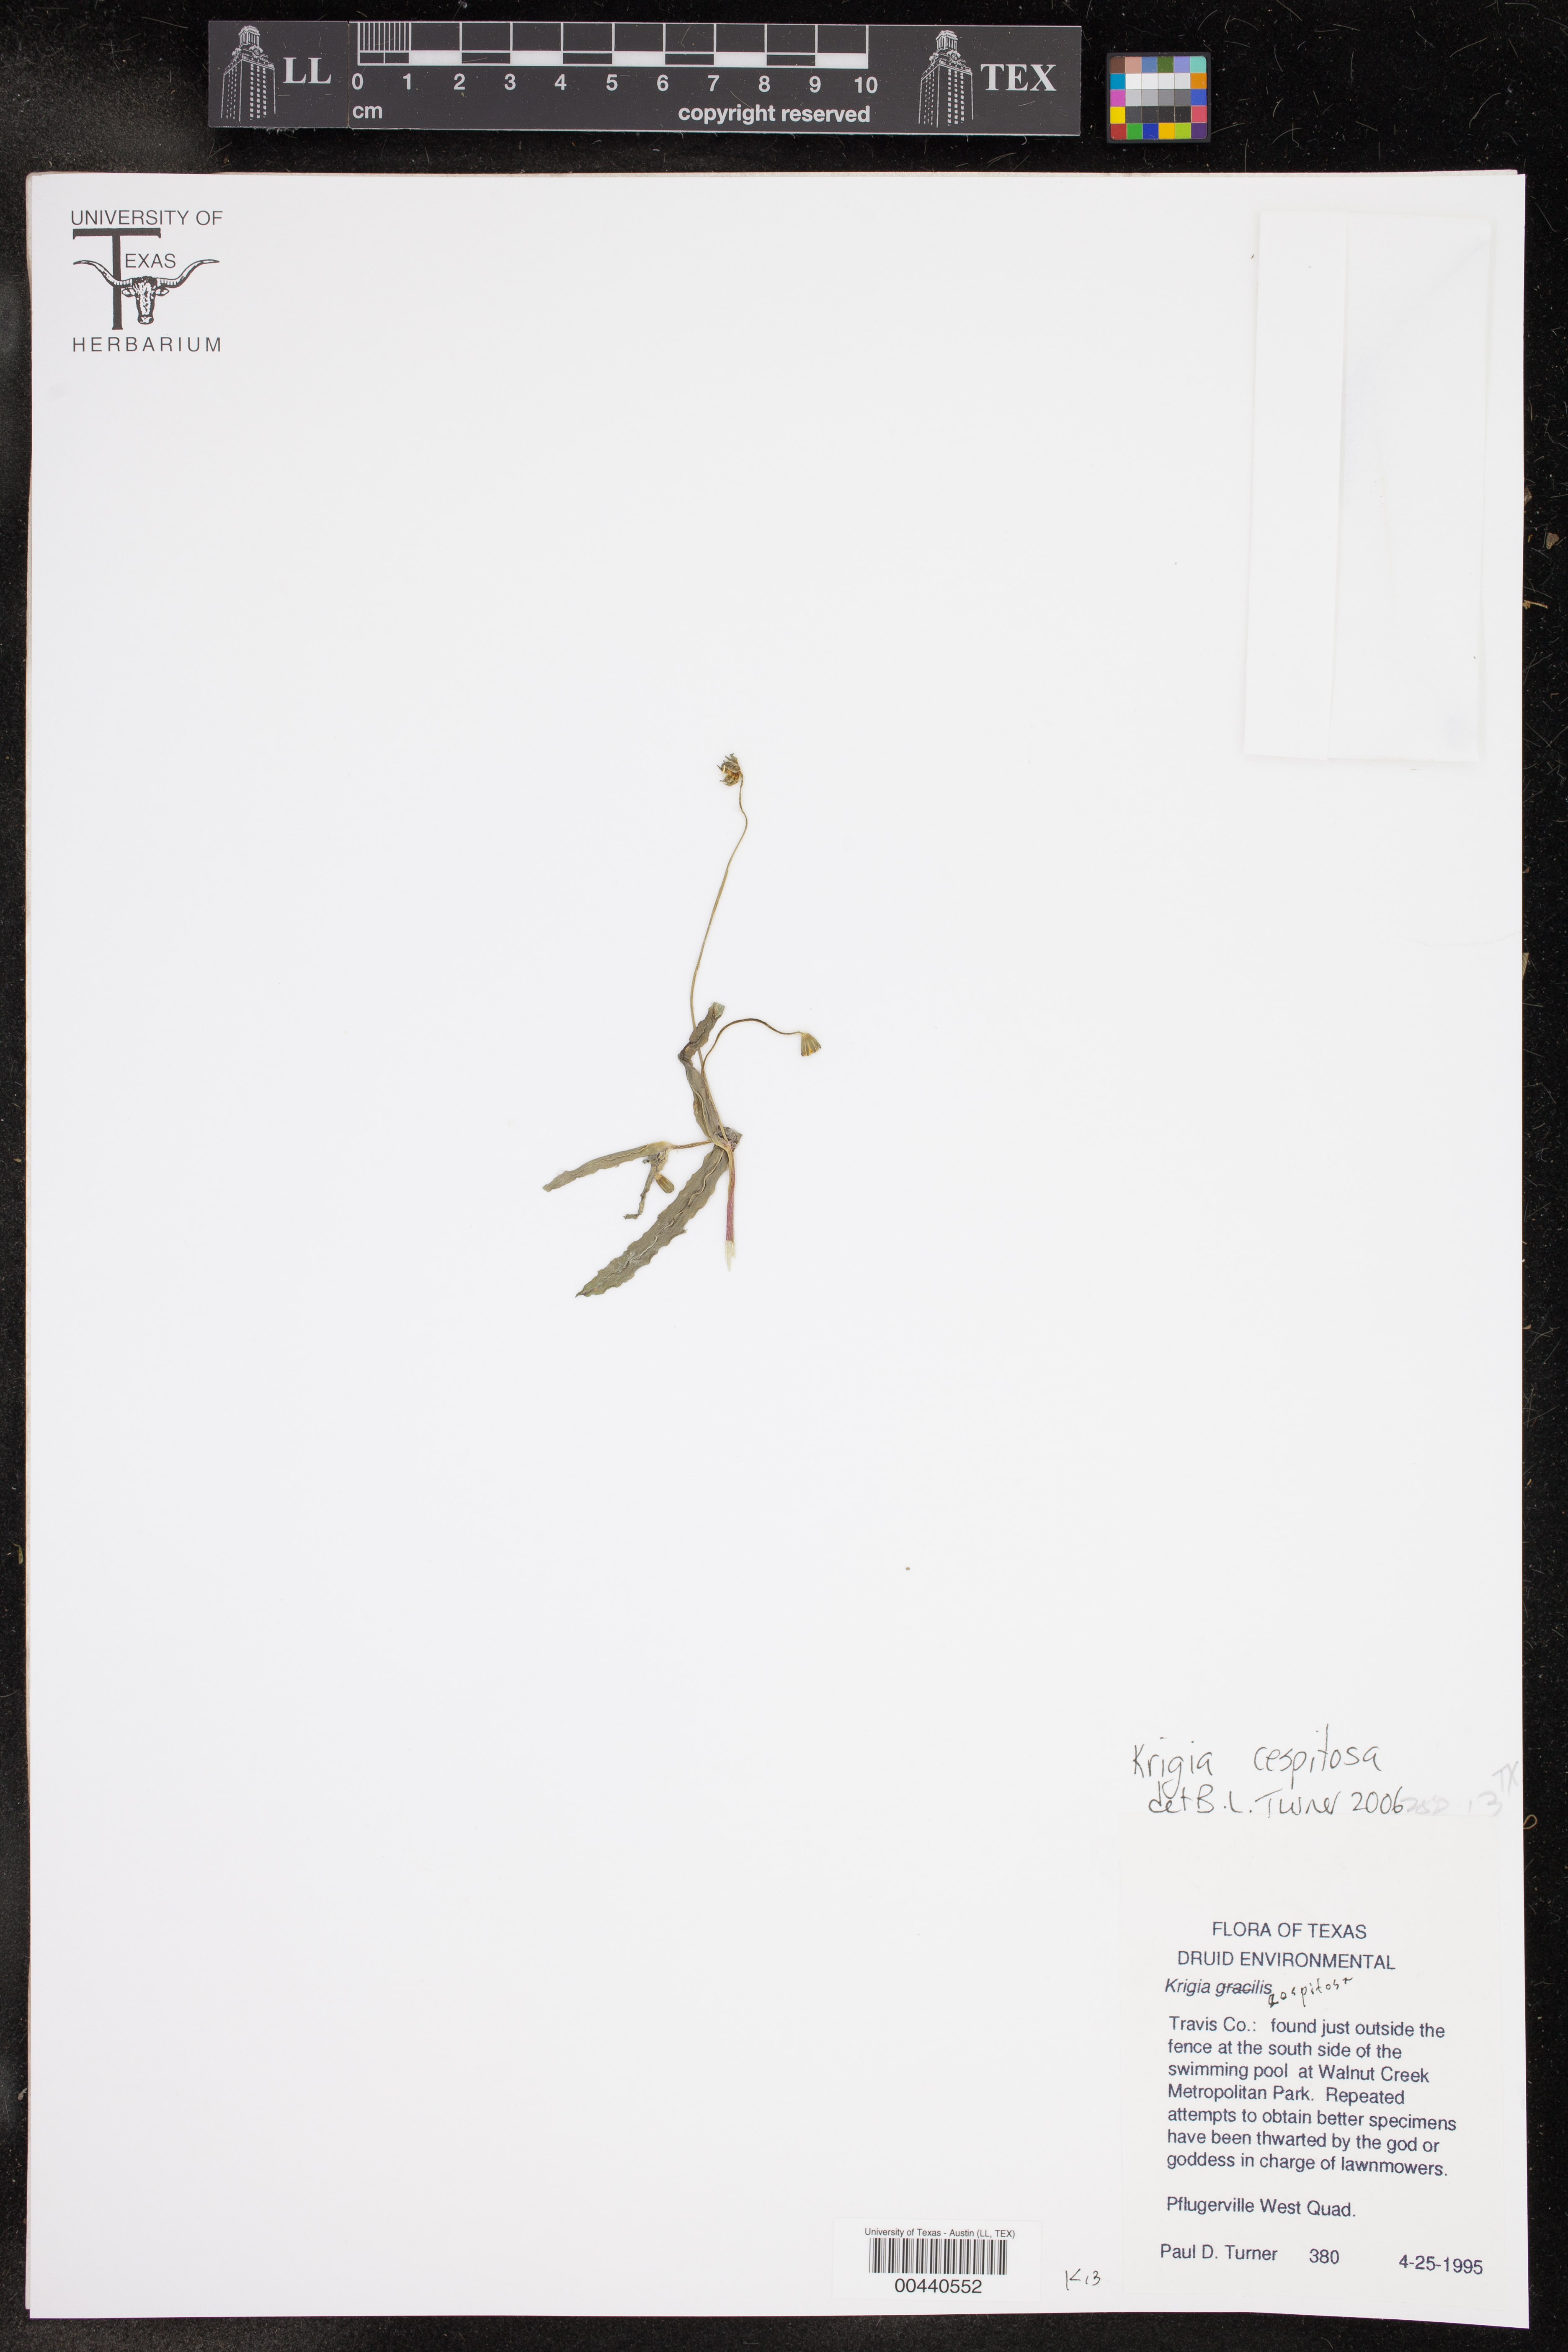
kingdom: Plantae
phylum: Tracheophyta
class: Magnoliopsida
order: Asterales
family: Asteraceae
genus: Krigia
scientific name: Krigia cespitosa
